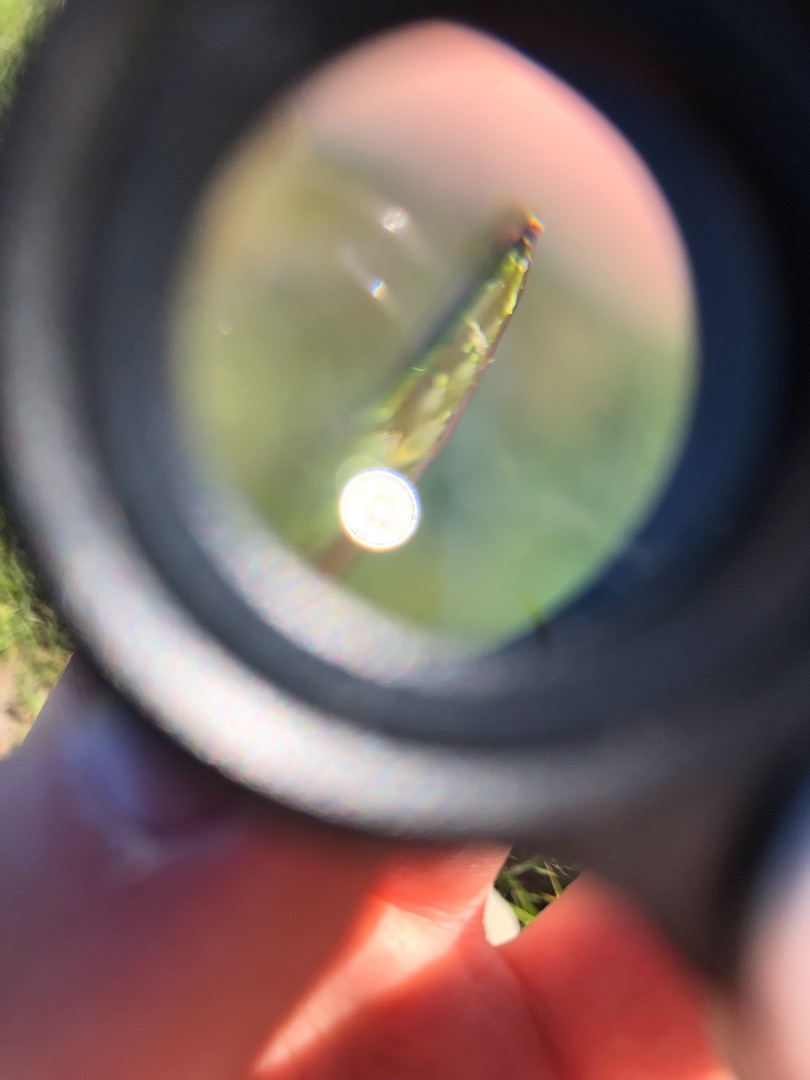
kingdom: Plantae
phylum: Tracheophyta
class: Magnoliopsida
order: Brassicales
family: Brassicaceae
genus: Capsella
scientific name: Capsella bursa-pastoris
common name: Hyrdetaske
